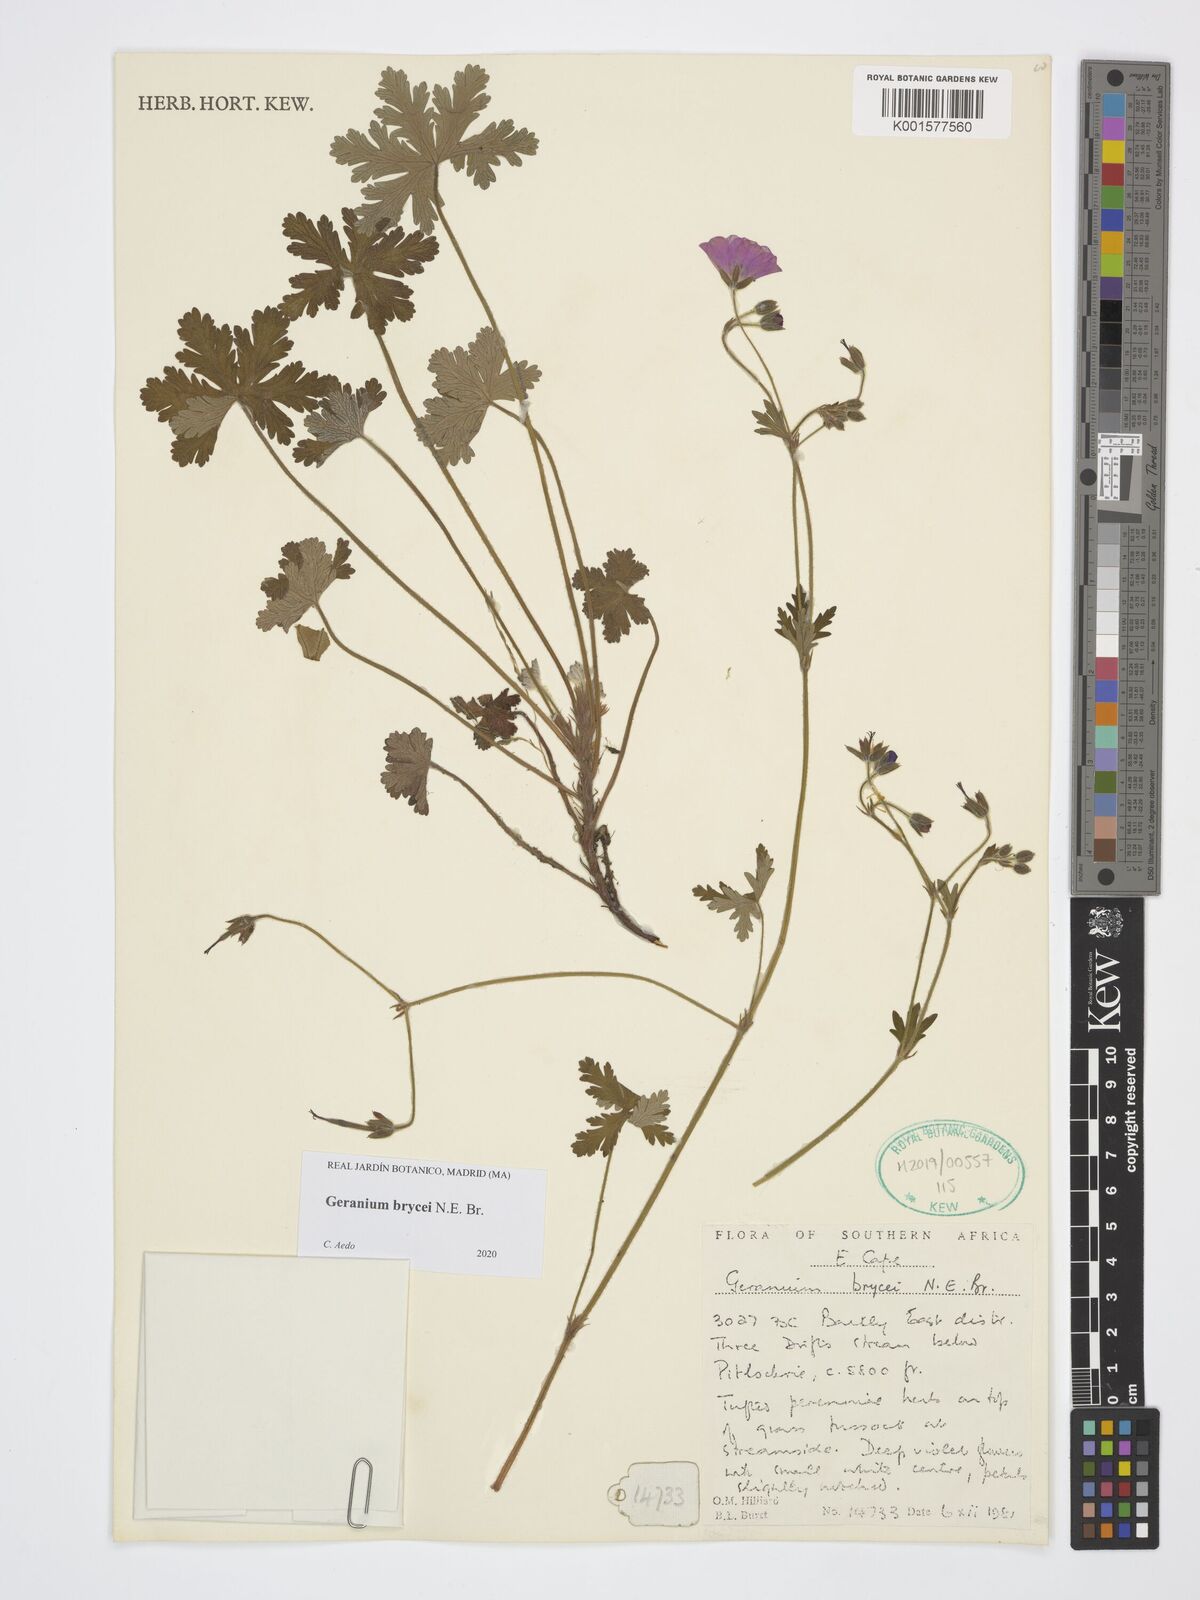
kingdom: Plantae
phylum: Tracheophyta
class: Magnoliopsida
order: Geraniales
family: Geraniaceae
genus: Geranium
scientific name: Geranium brycei
